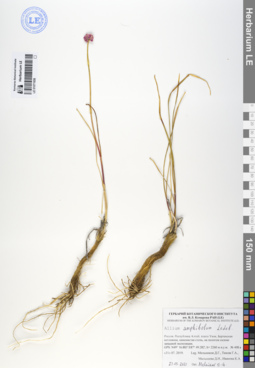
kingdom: Plantae
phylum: Tracheophyta
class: Liliopsida
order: Asparagales
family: Amaryllidaceae
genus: Allium
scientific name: Allium amphibolum
